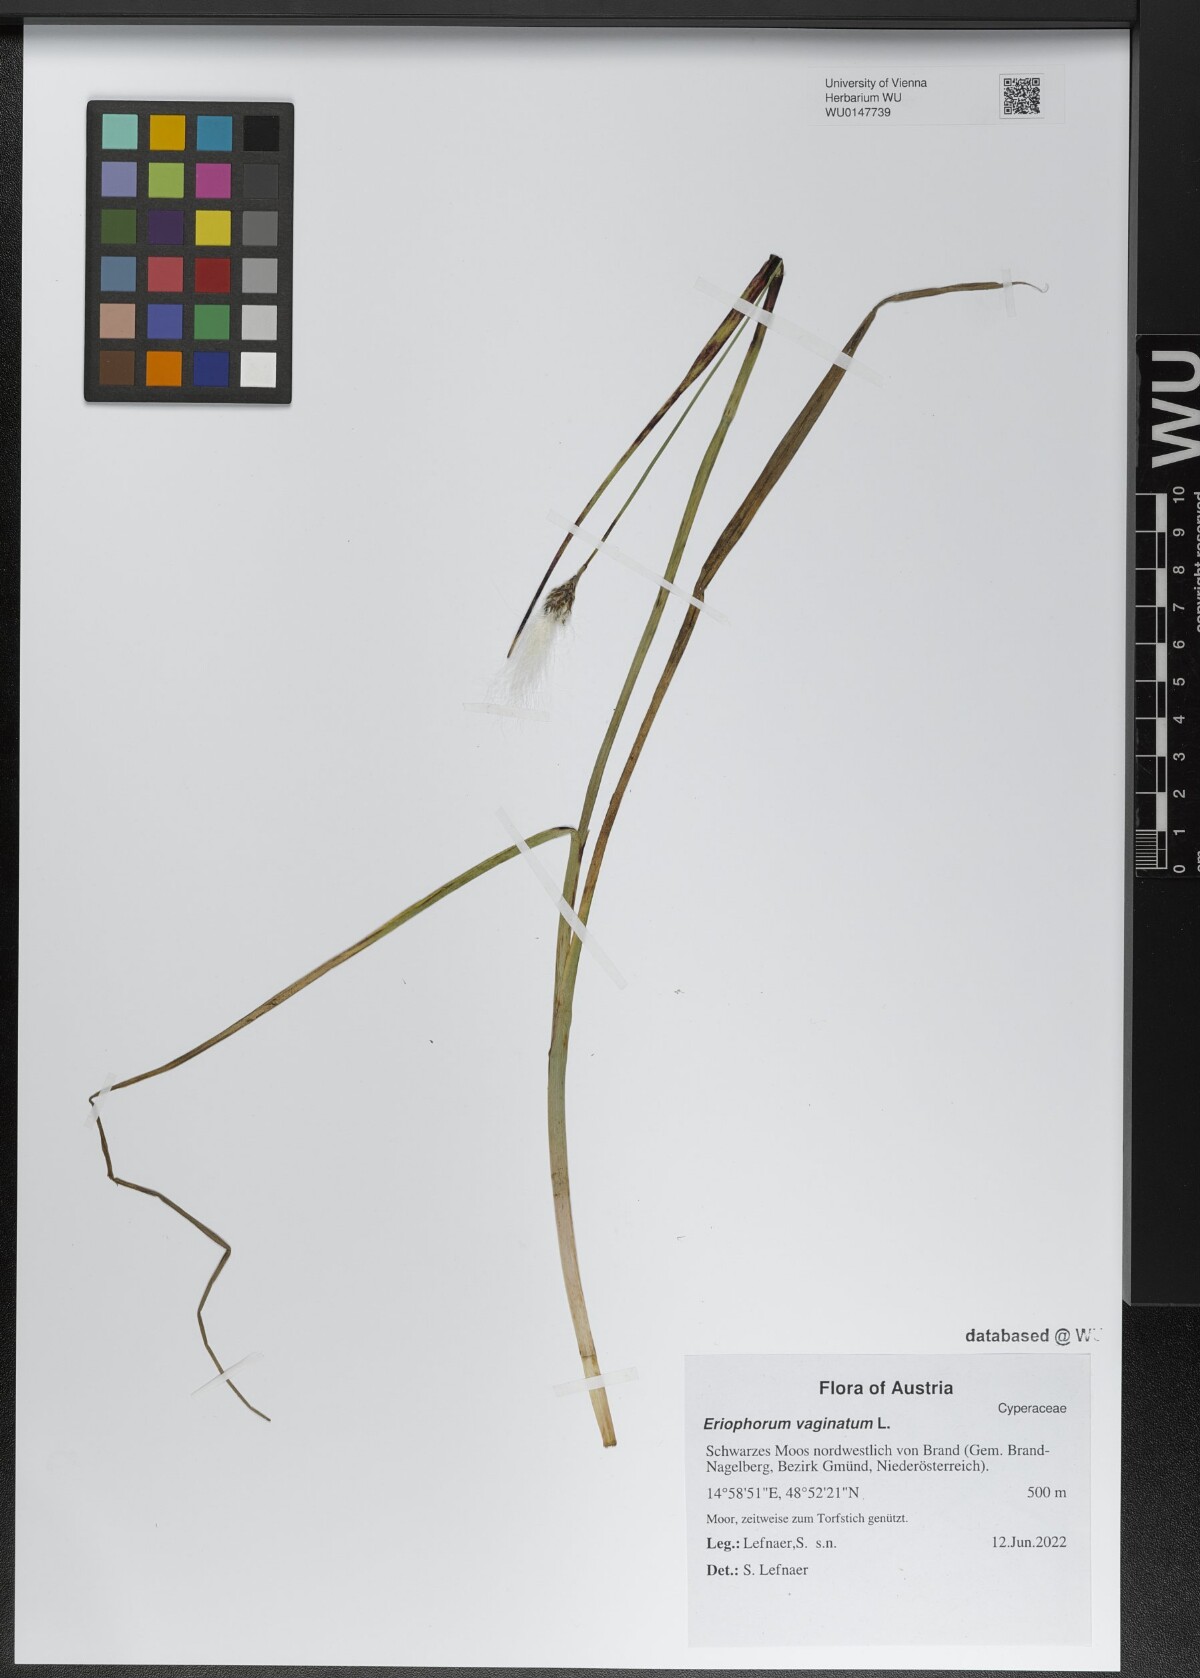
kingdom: Plantae
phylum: Tracheophyta
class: Liliopsida
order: Poales
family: Cyperaceae
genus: Eriophorum
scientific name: Eriophorum vaginatum
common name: Hare's-tail cottongrass
